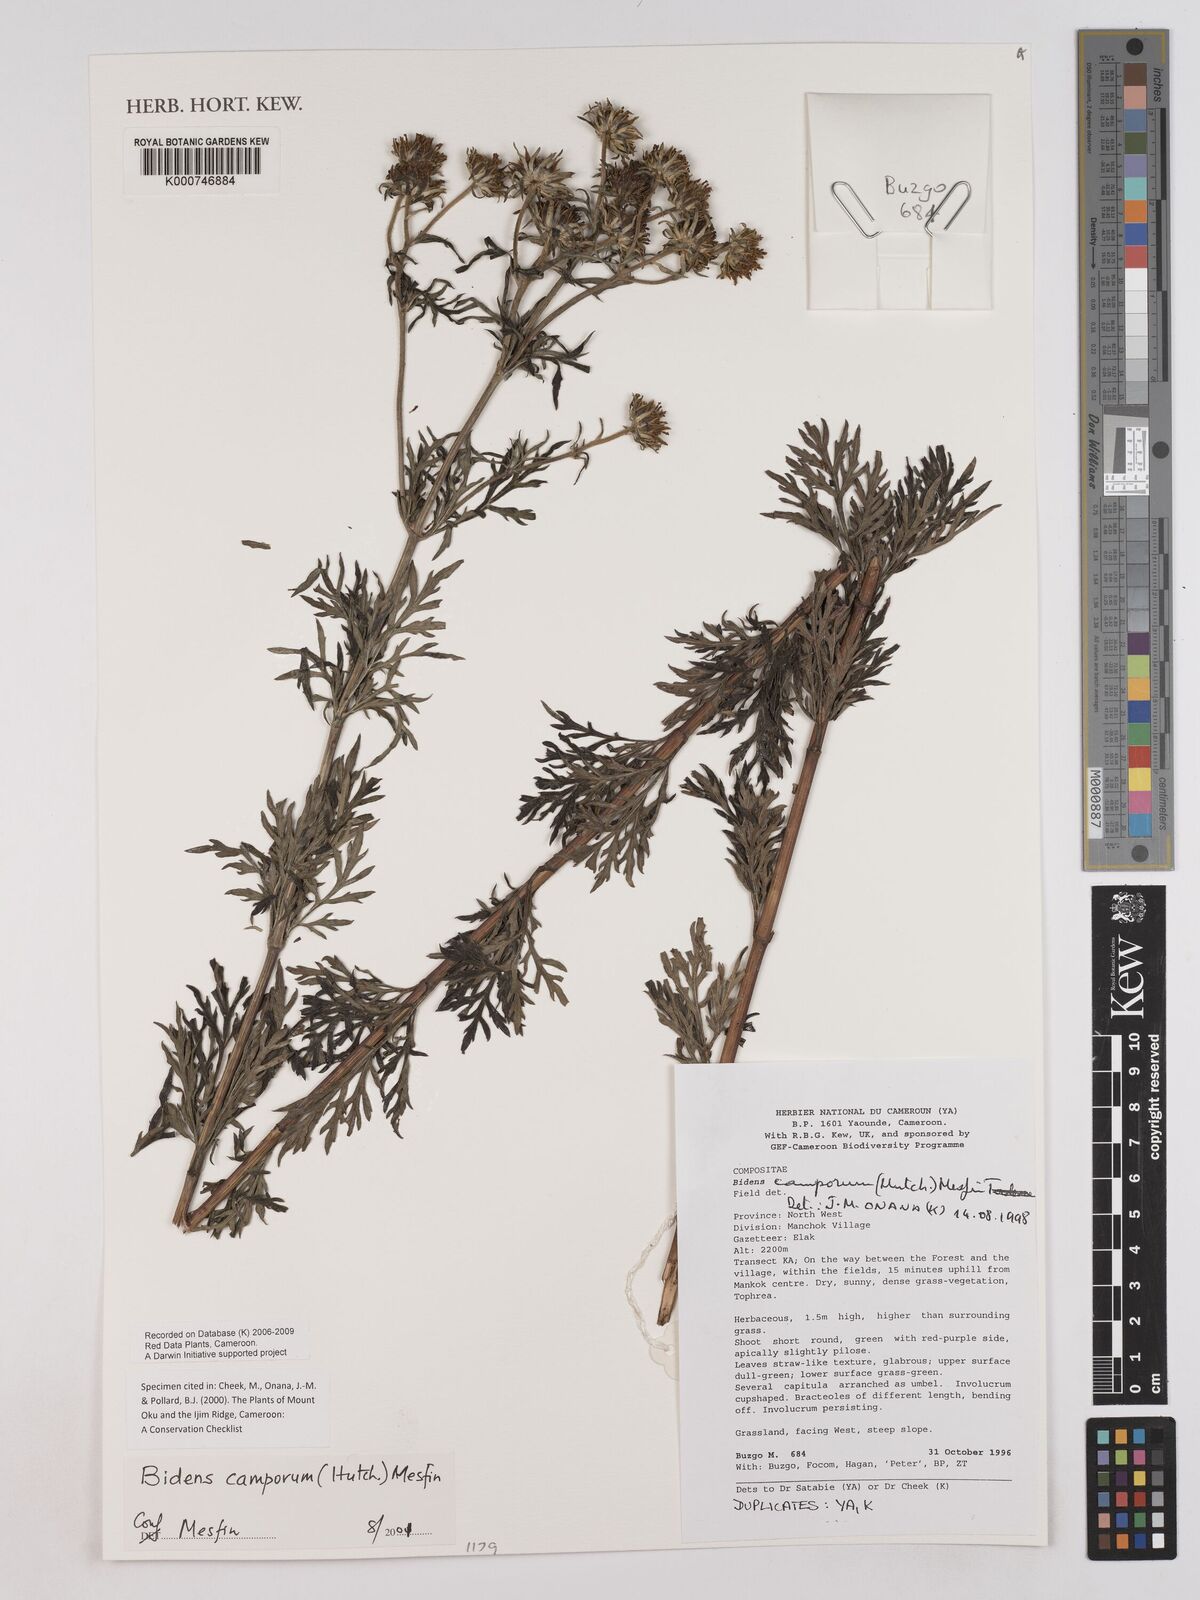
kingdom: Plantae
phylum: Tracheophyta
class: Magnoliopsida
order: Asterales
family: Asteraceae
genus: Bidens
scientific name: Bidens camporum
